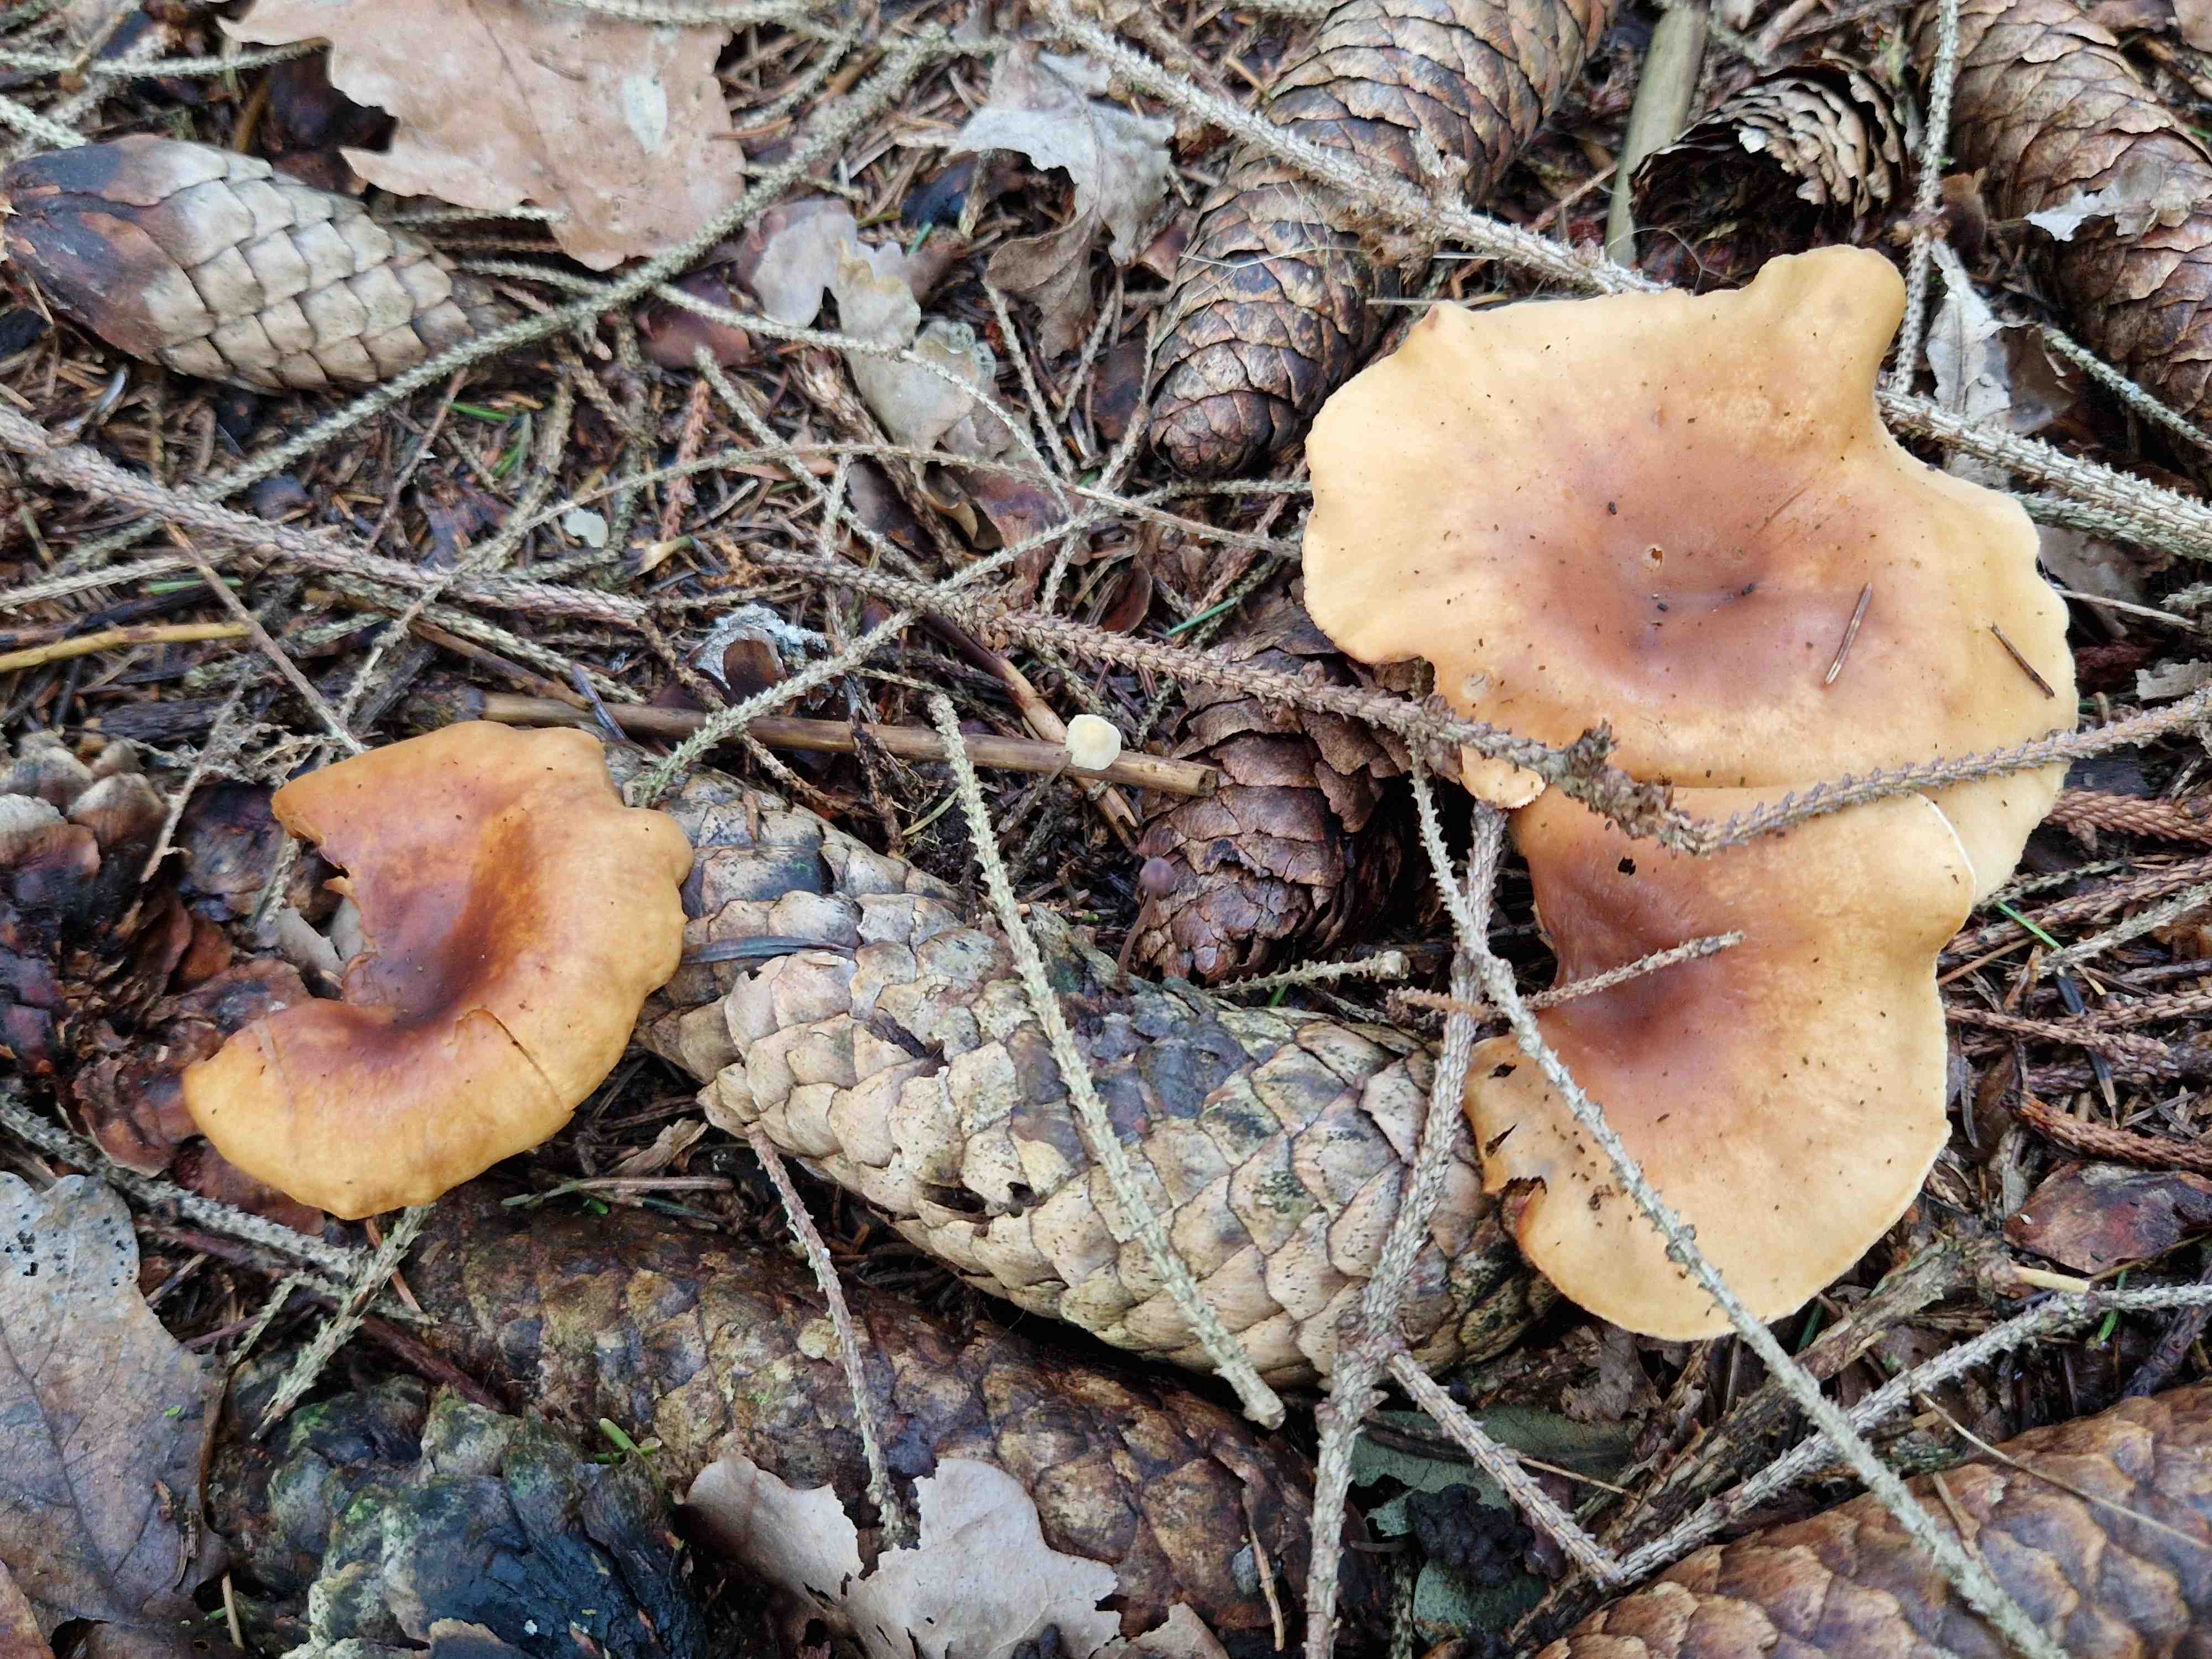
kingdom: Fungi
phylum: Basidiomycota
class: Agaricomycetes
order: Agaricales
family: Tricholomataceae
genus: Paralepista
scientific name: Paralepista flaccida
